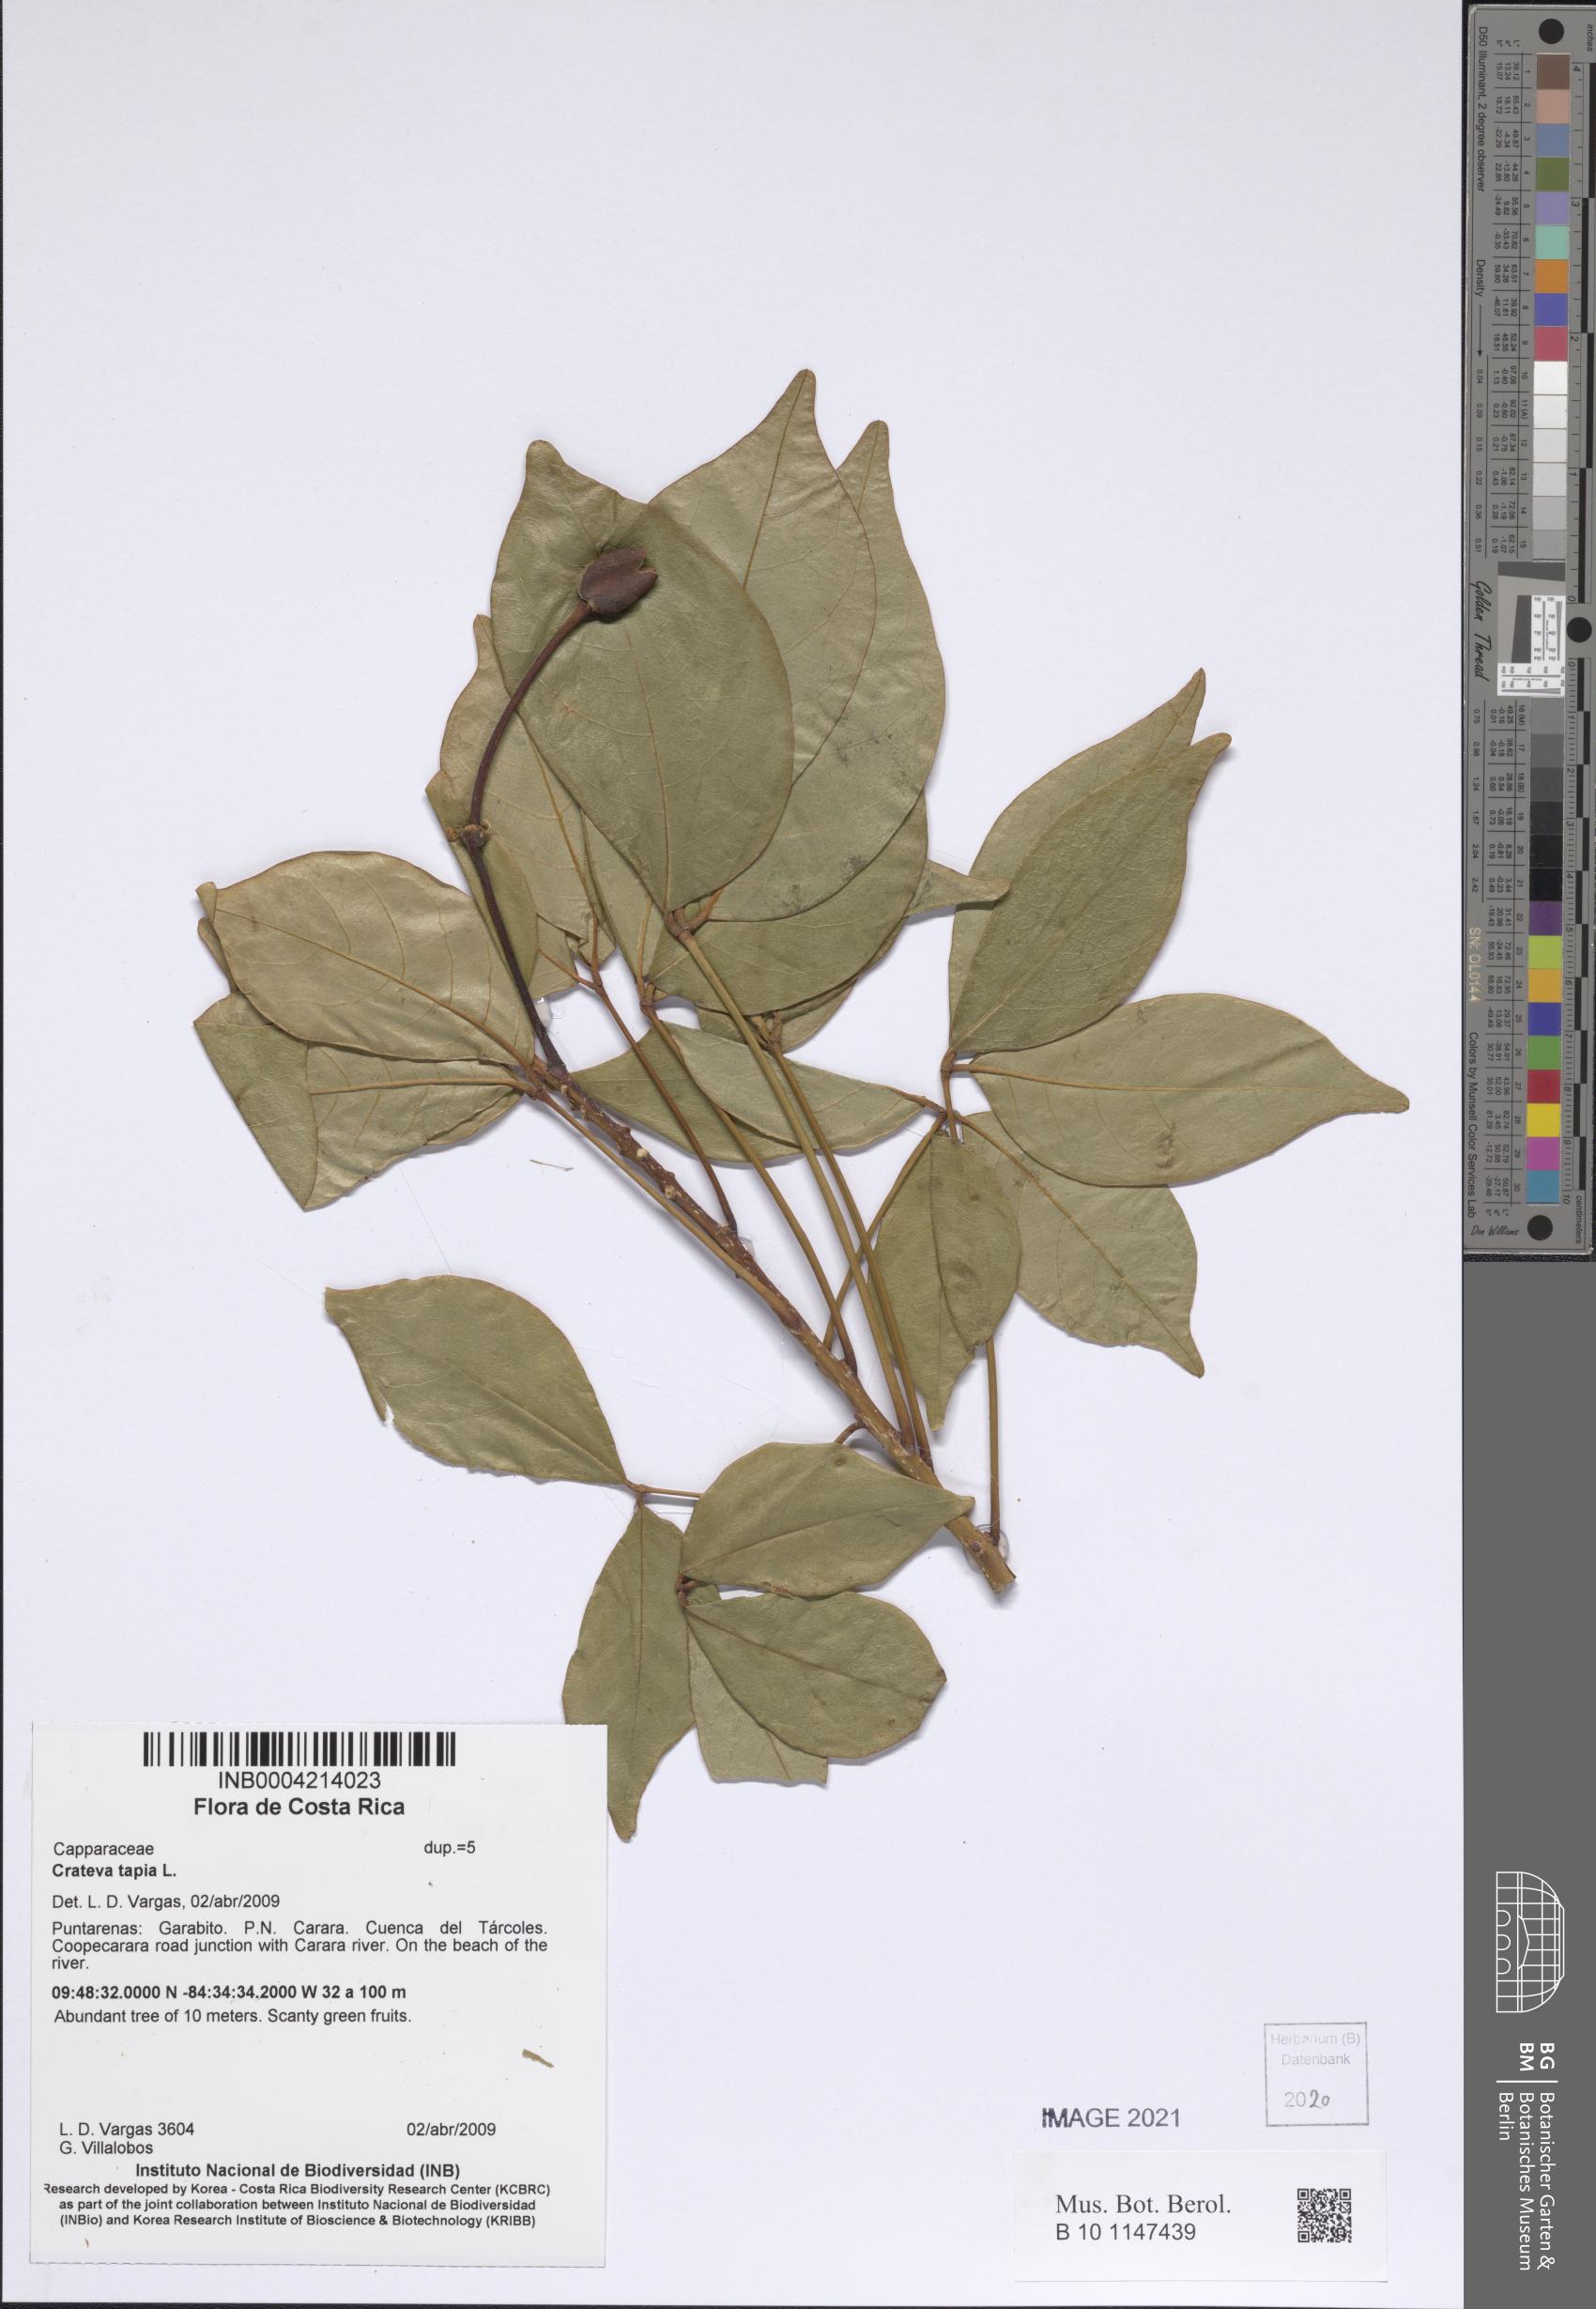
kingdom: Plantae
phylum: Tracheophyta
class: Magnoliopsida
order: Brassicales
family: Capparaceae
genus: Crateva
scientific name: Crateva tapia
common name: Garlic-pear
